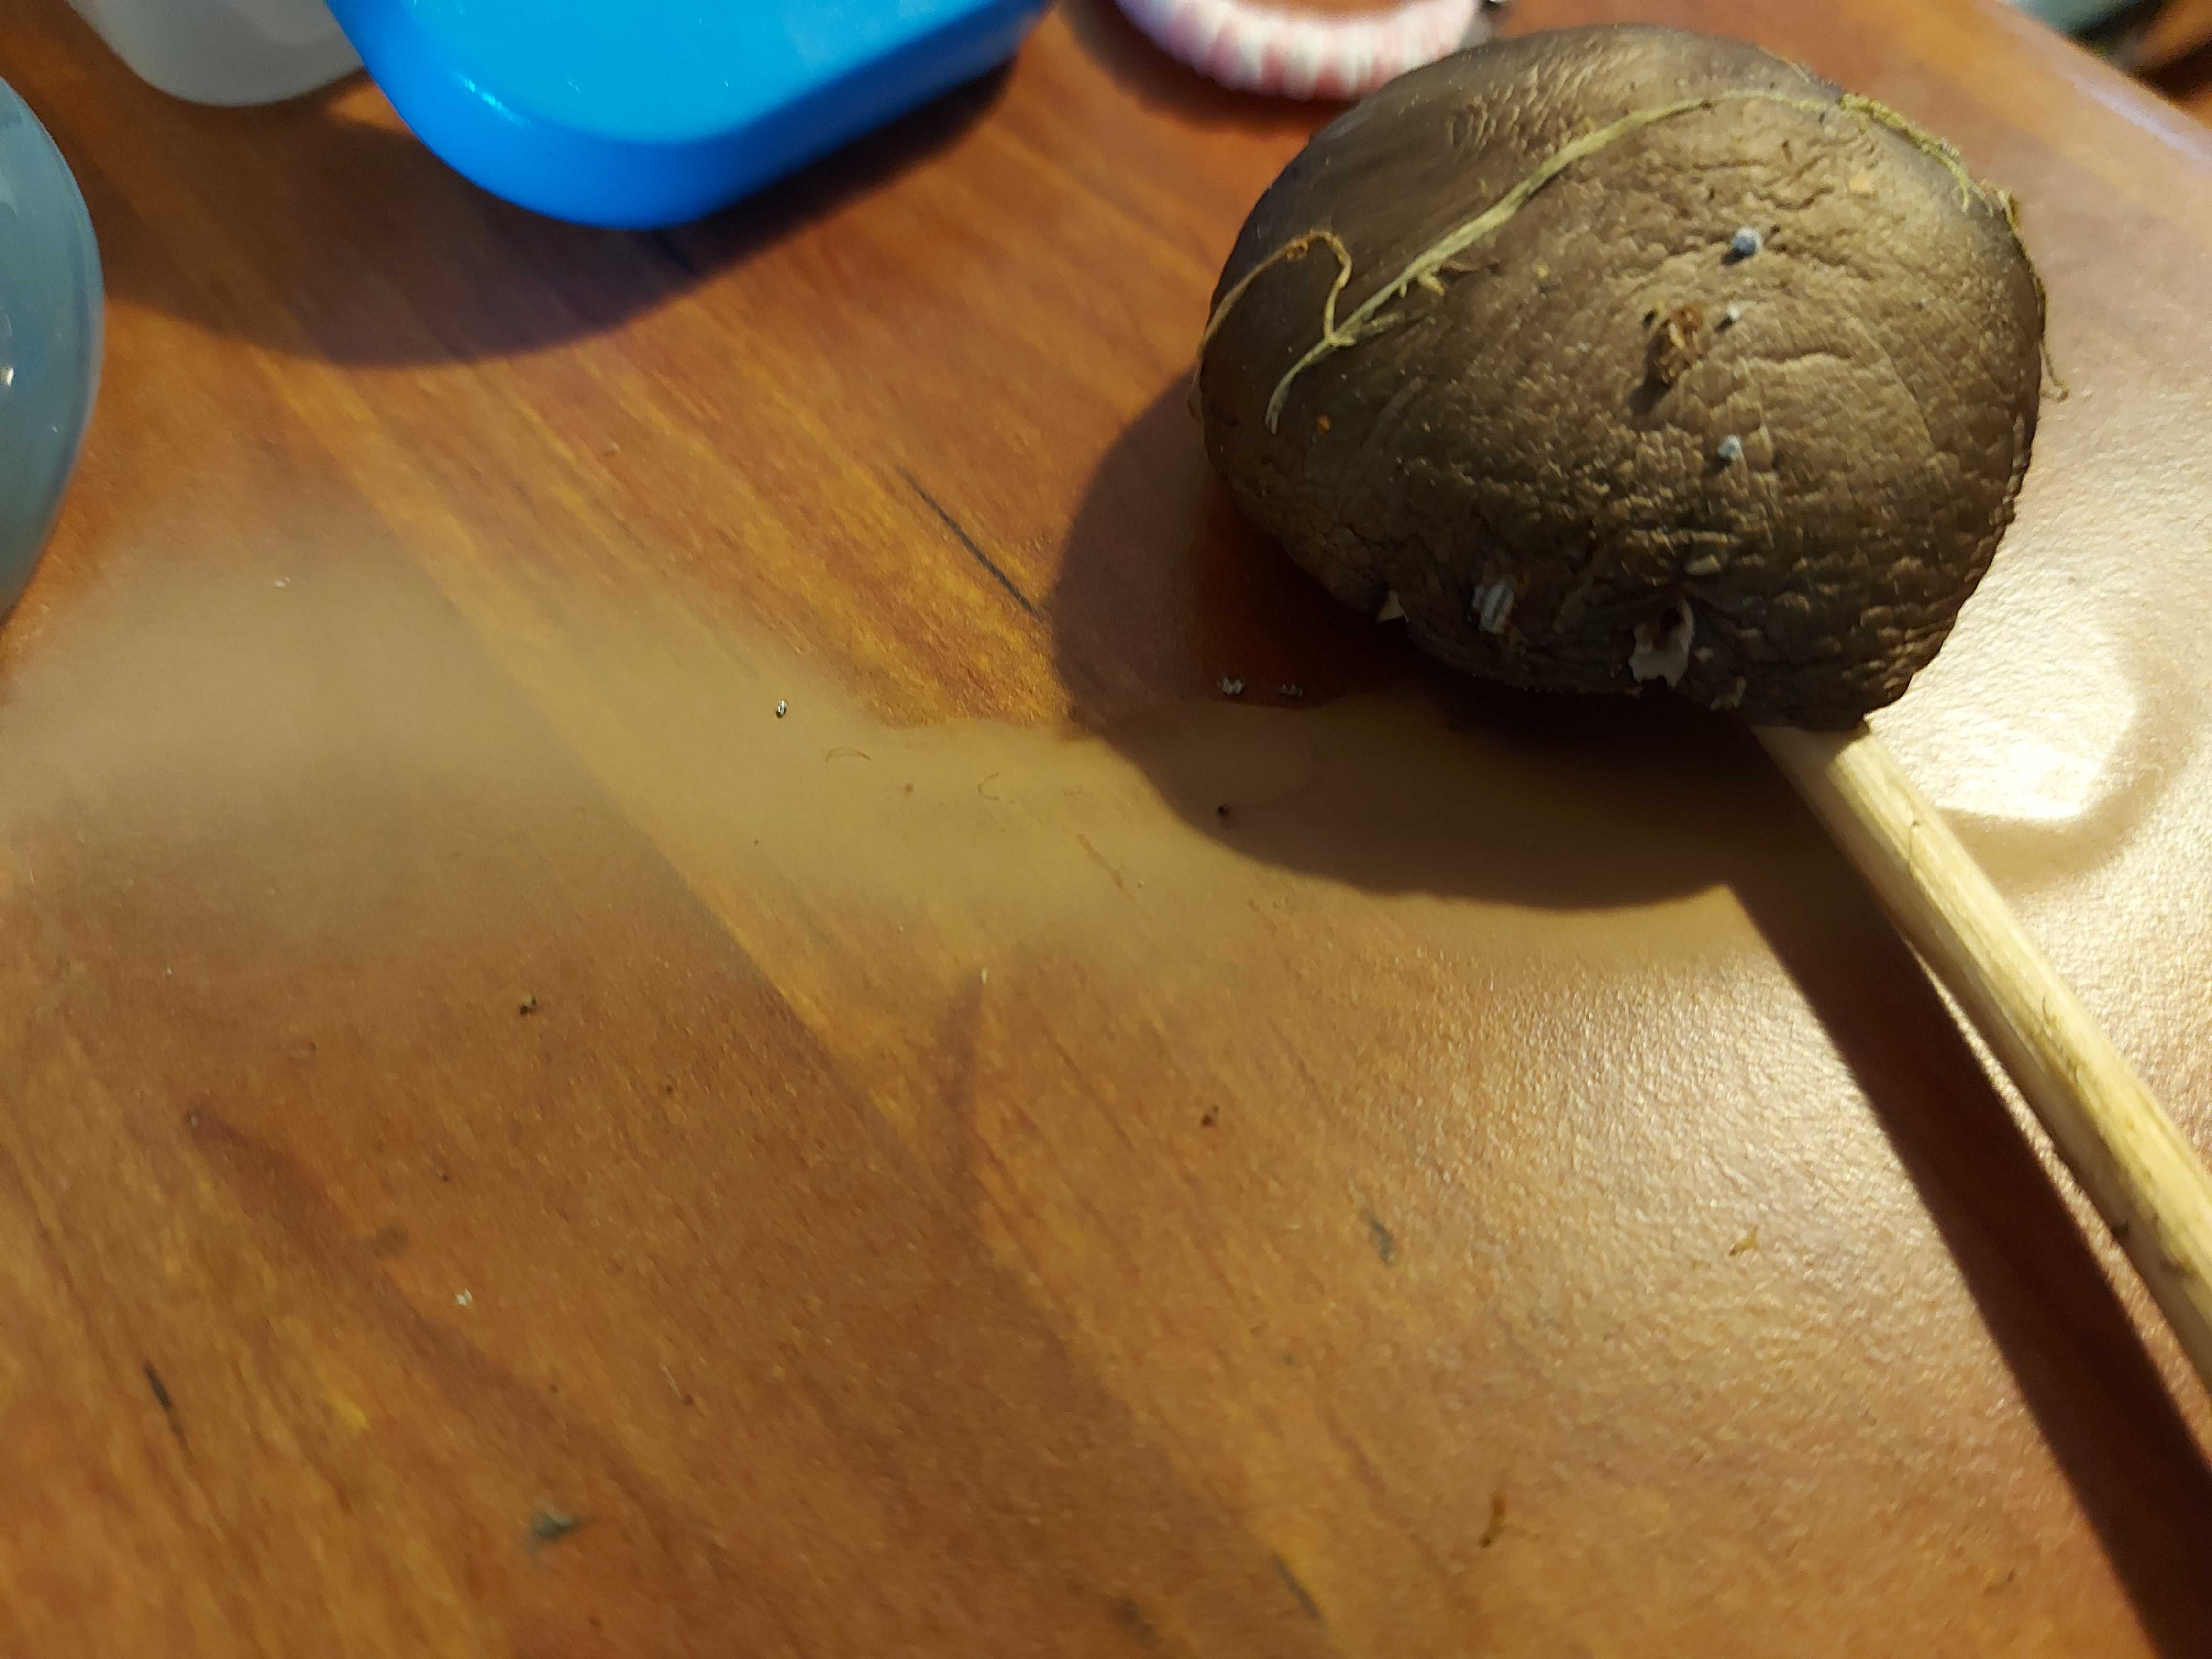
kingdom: Fungi
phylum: Basidiomycota
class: Agaricomycetes
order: Agaricales
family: Pluteaceae
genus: Pluteus
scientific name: Pluteus
